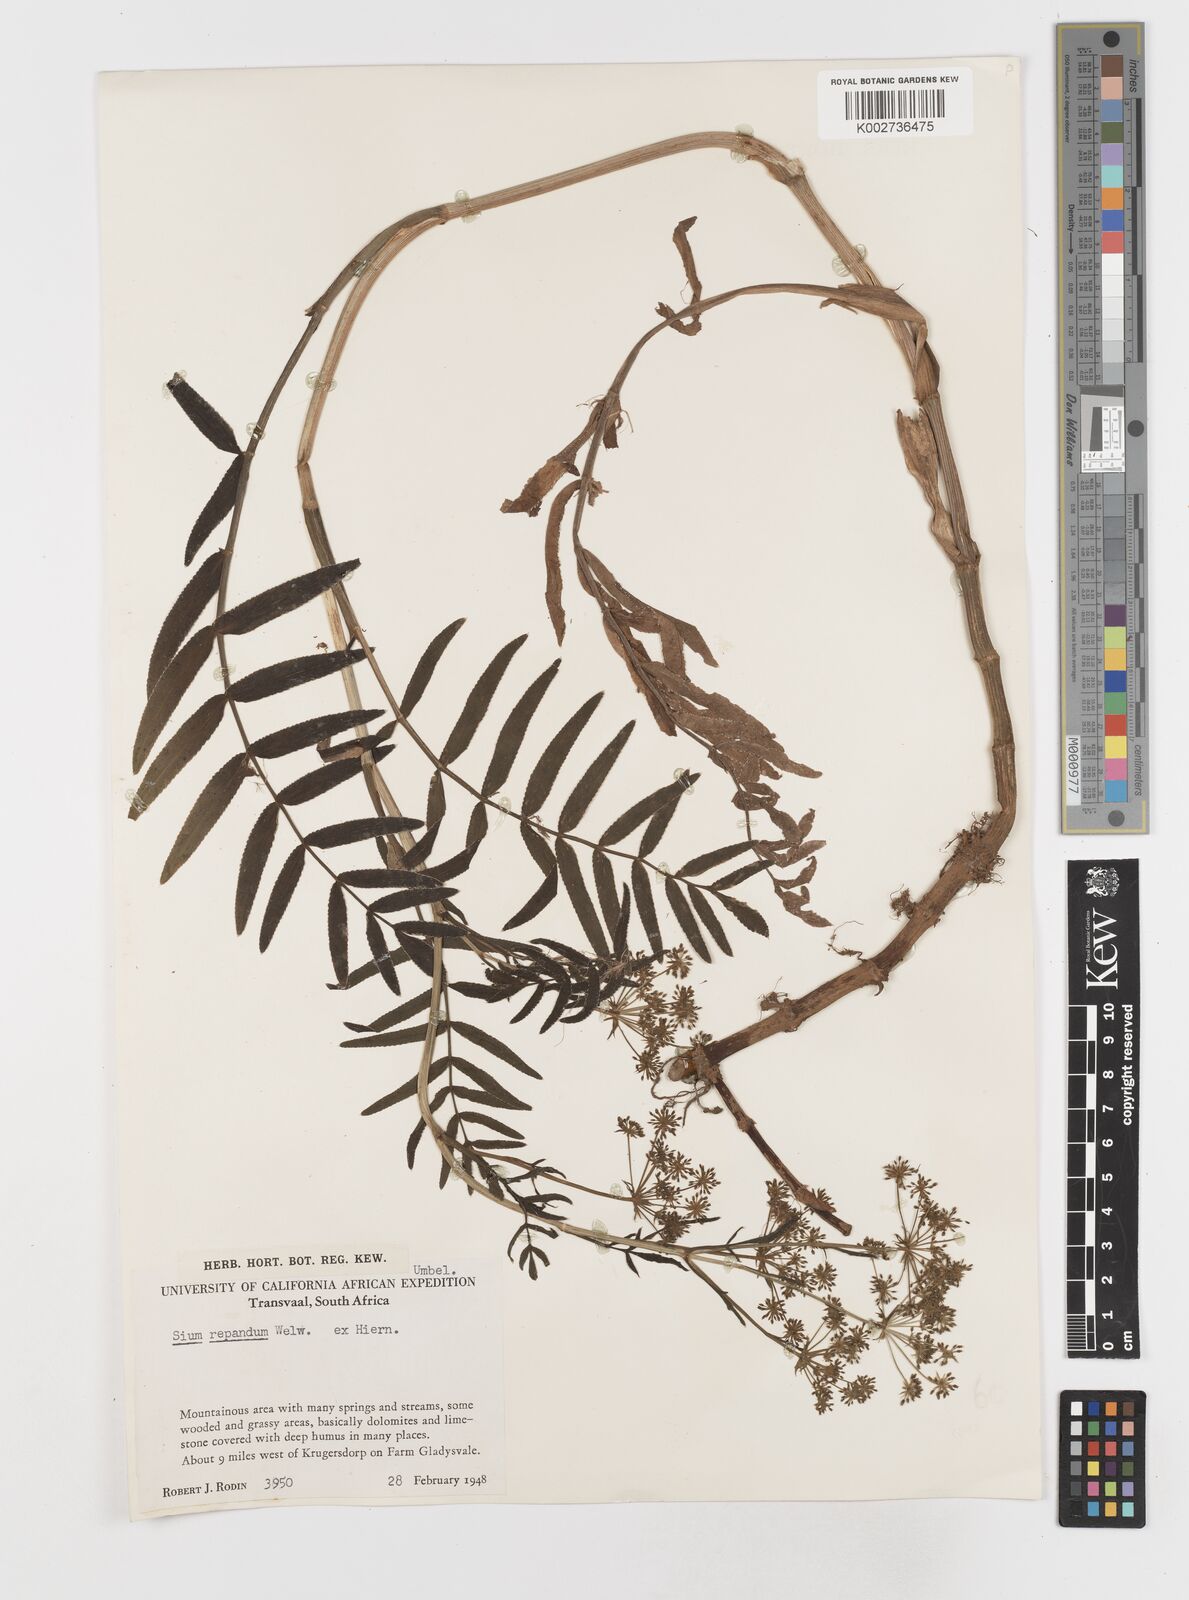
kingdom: Plantae
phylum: Tracheophyta
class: Magnoliopsida
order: Apiales
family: Apiaceae
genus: Berula
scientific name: Berula repanda
